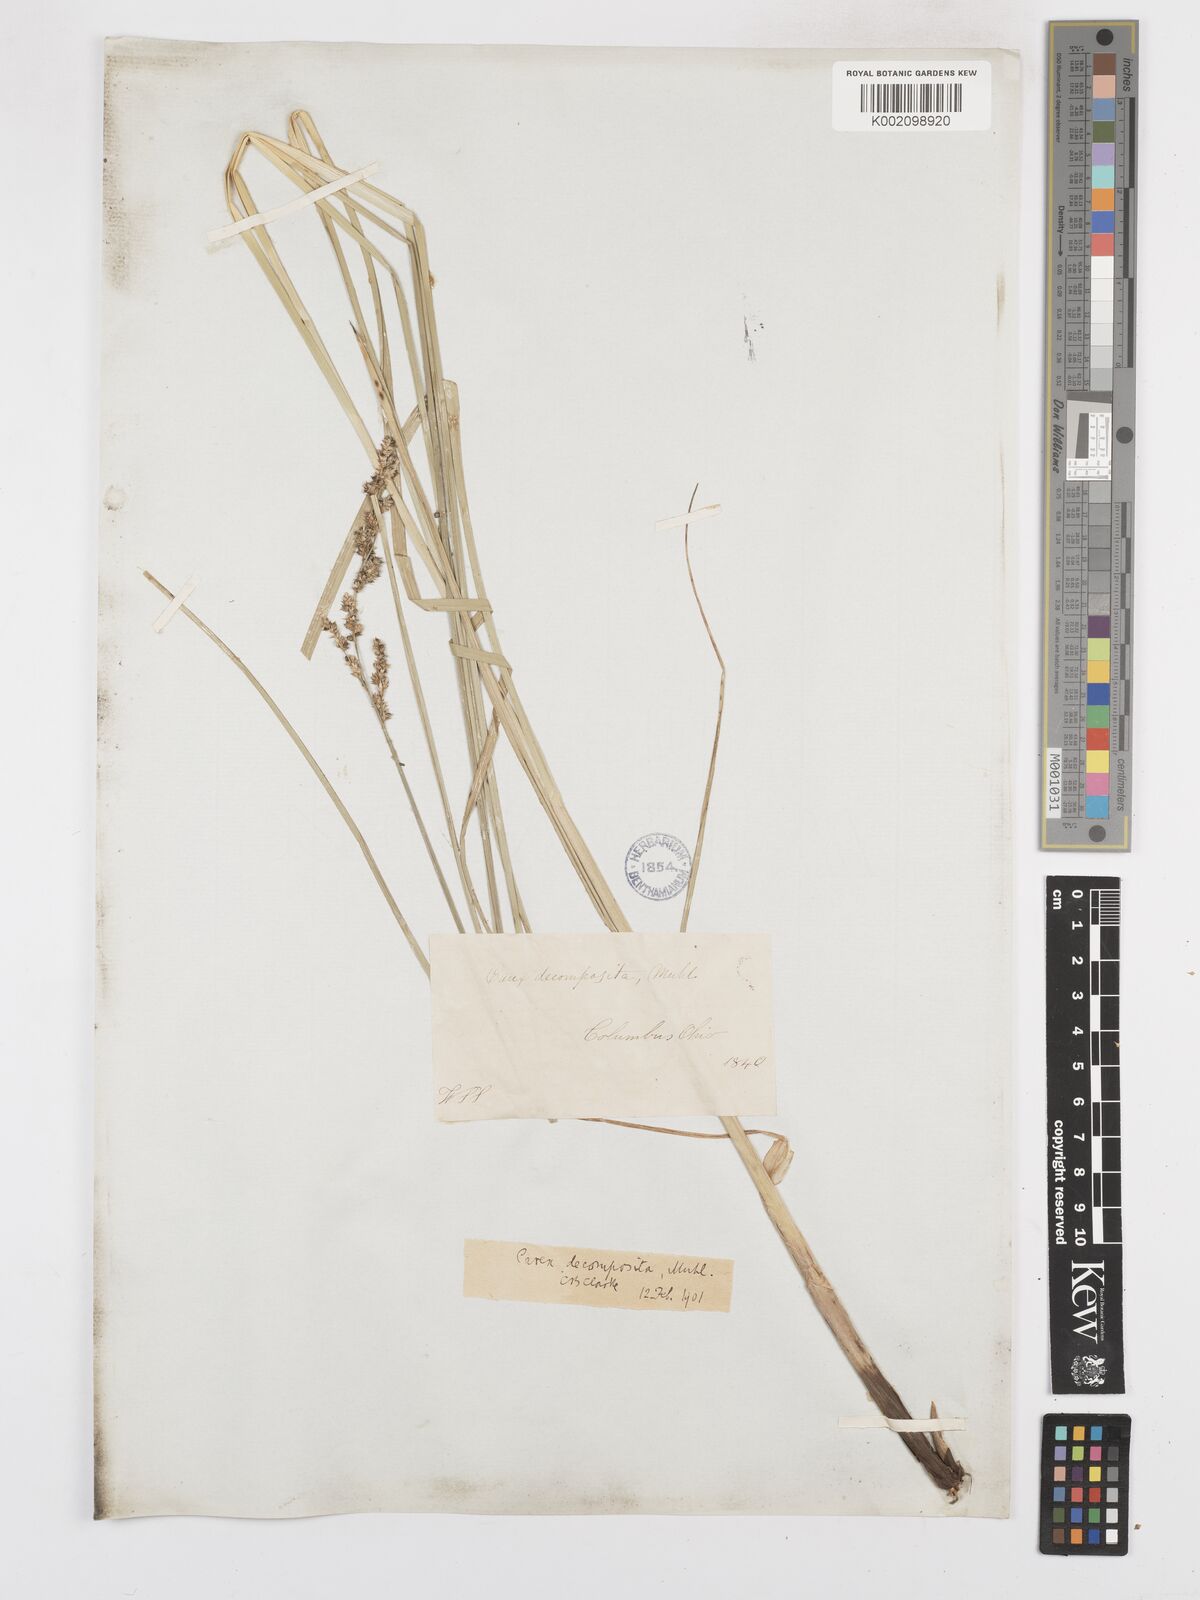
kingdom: Plantae
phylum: Tracheophyta
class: Liliopsida
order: Poales
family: Cyperaceae
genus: Carex
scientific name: Carex decomposita
